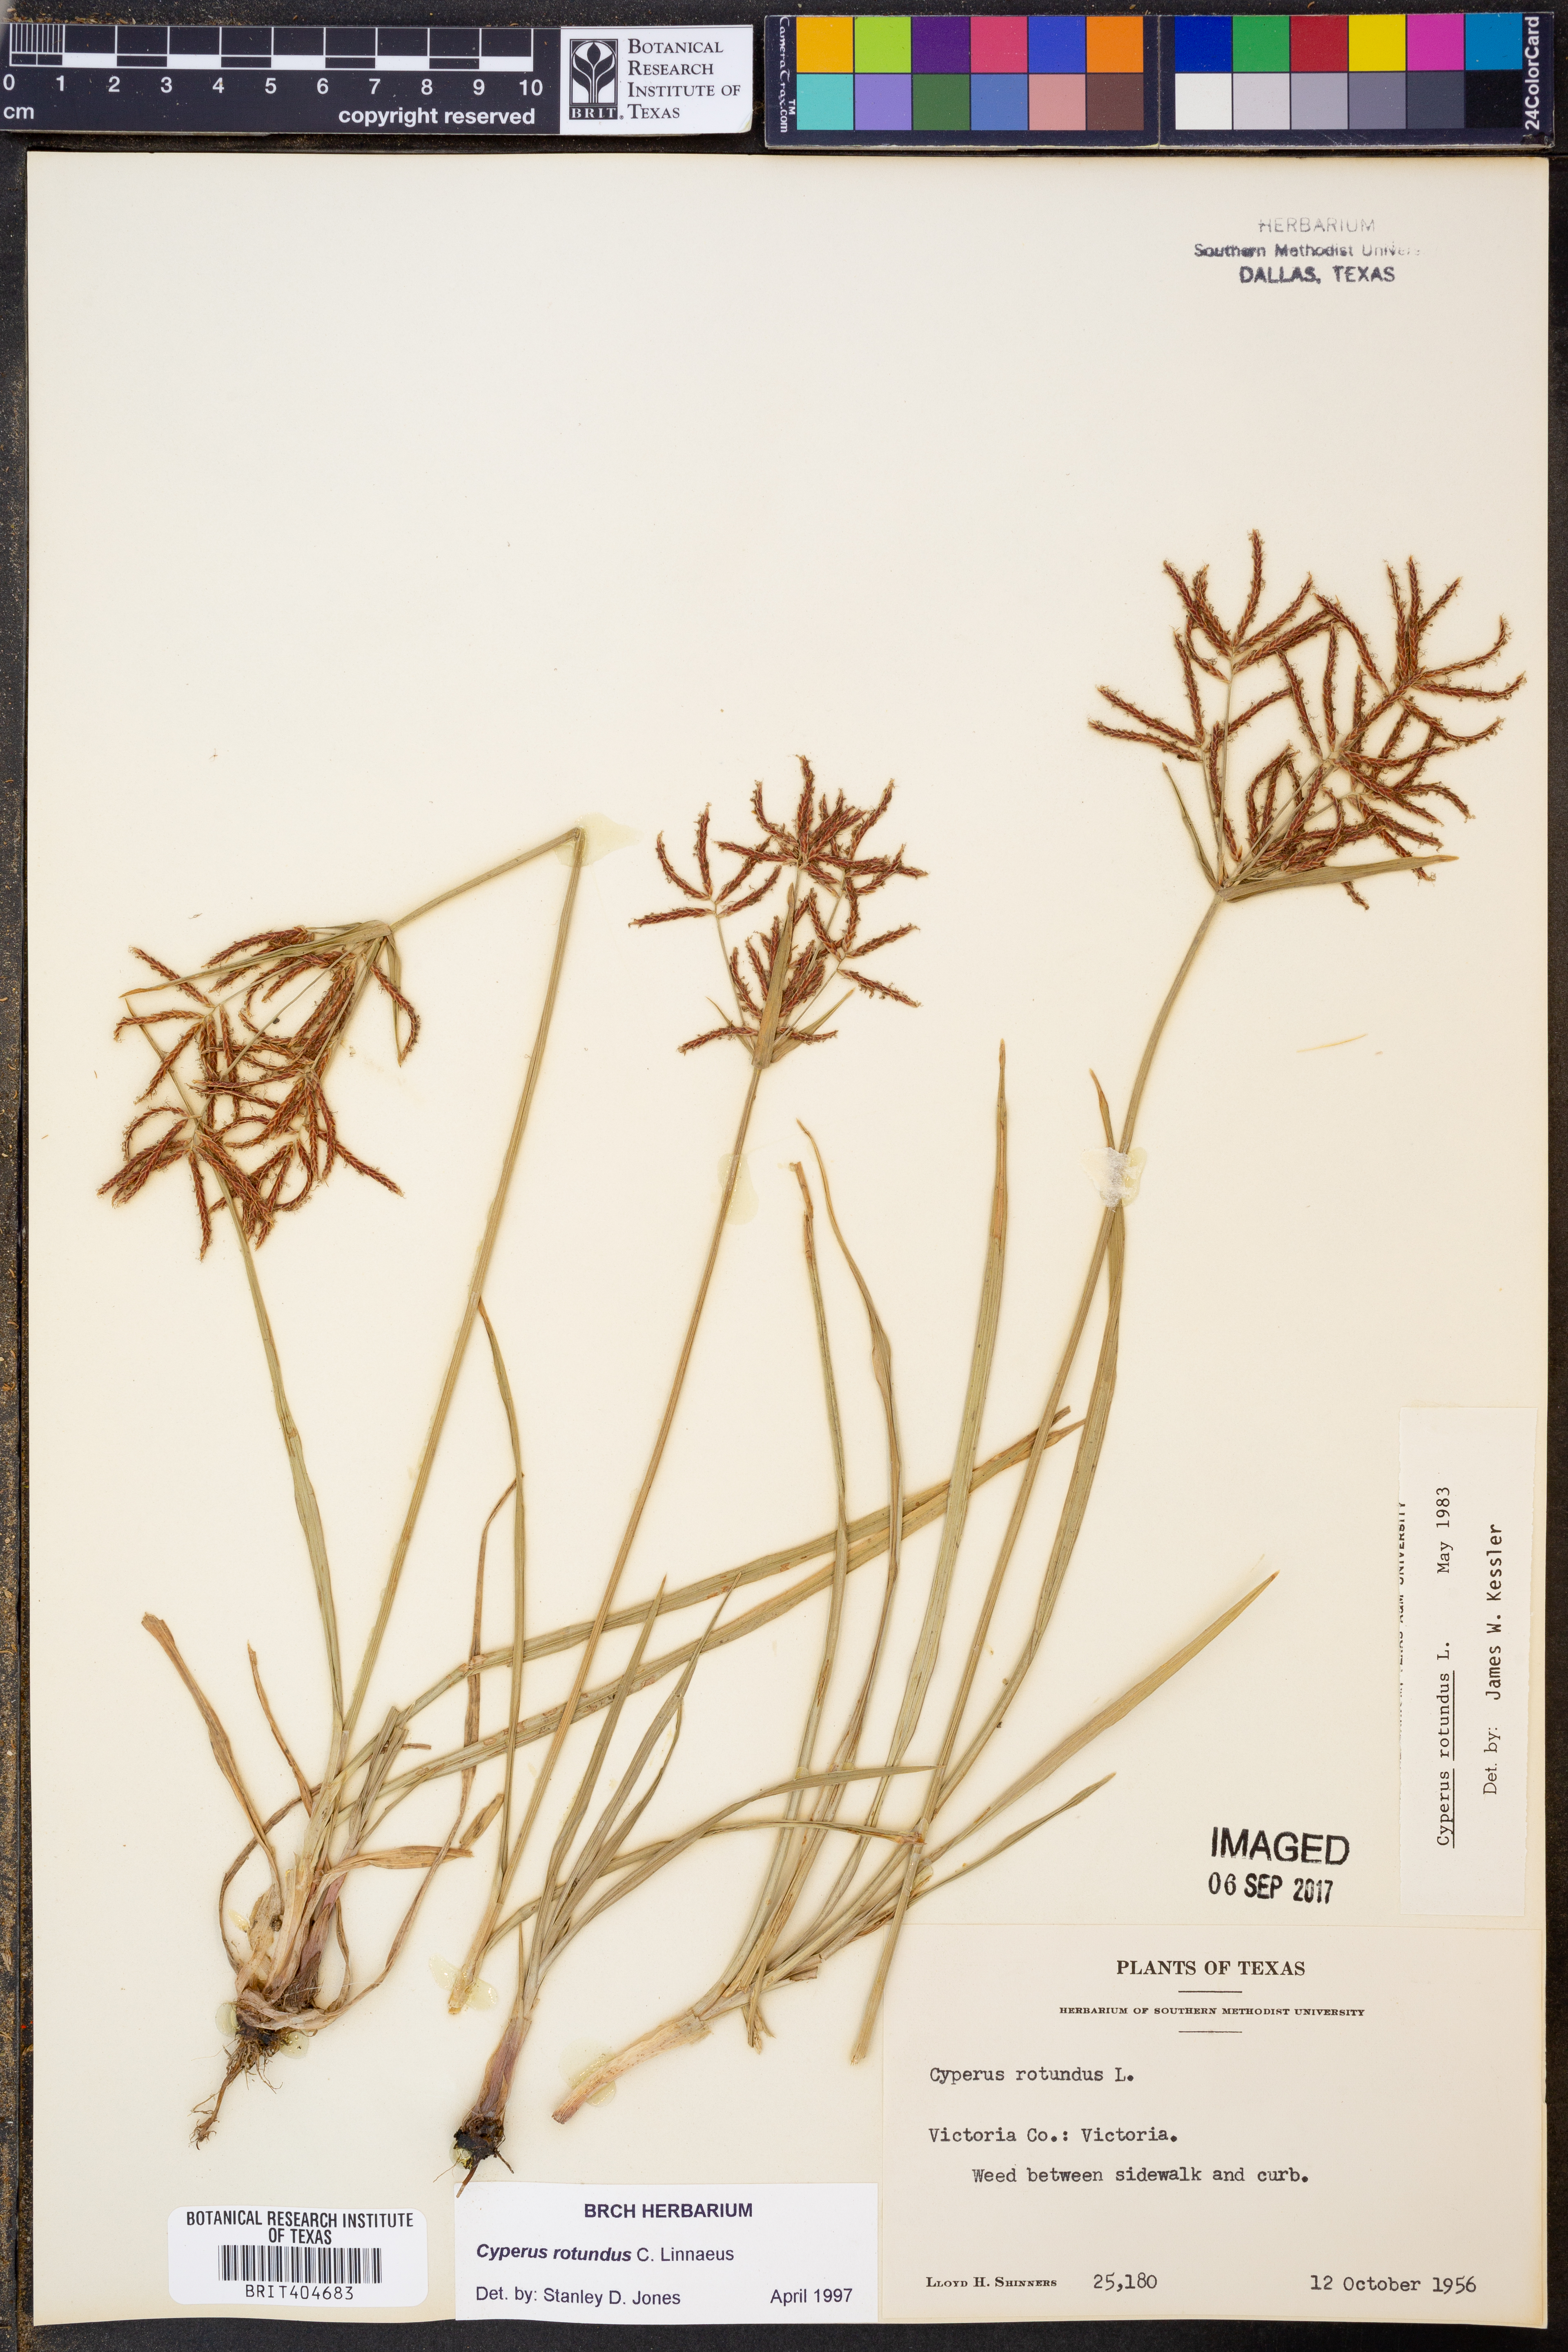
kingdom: Plantae
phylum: Tracheophyta
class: Liliopsida
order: Poales
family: Cyperaceae
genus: Cyperus
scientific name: Cyperus rotundus
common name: Nutgrass
